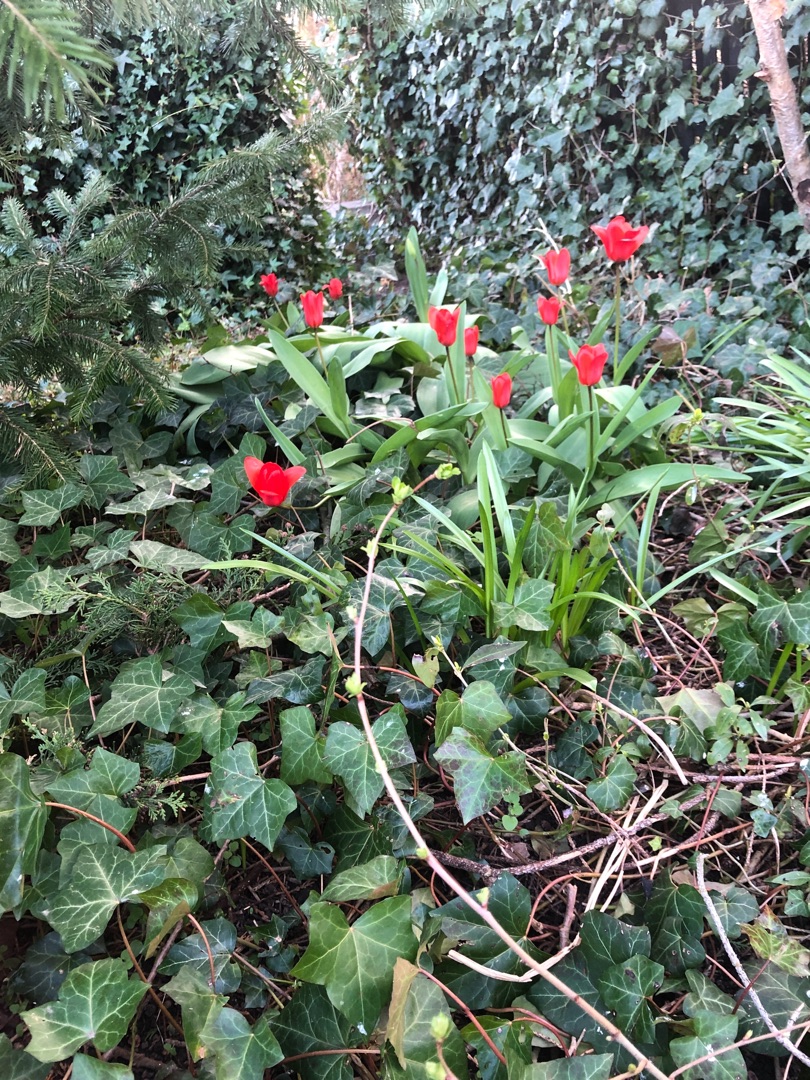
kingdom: Plantae
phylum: Tracheophyta
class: Liliopsida
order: Liliales
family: Liliaceae
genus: Tulipa
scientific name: Tulipa gesneriana
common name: Have-tulipan
